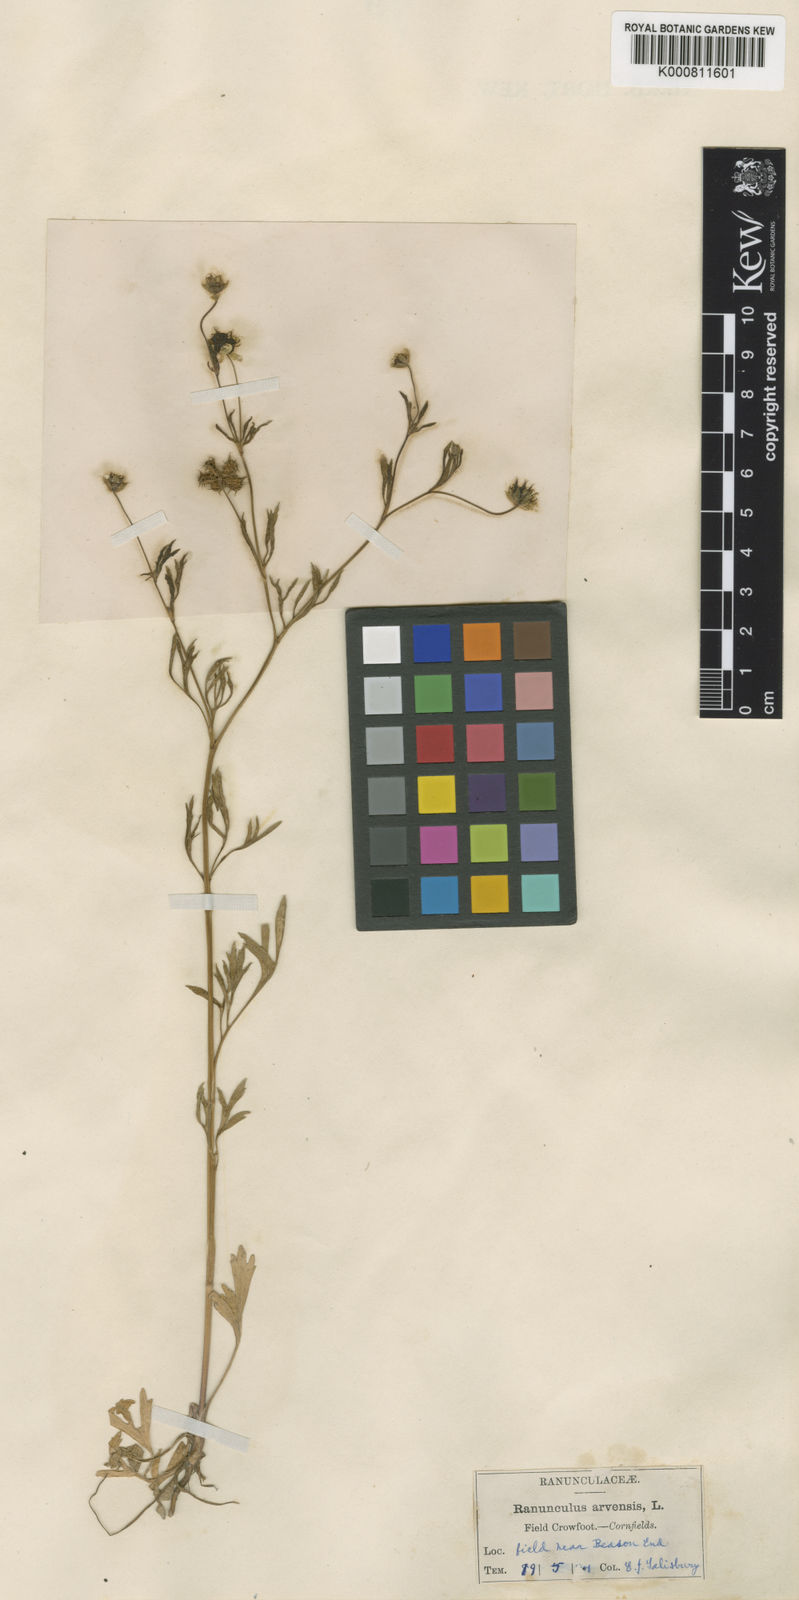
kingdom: Plantae
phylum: Tracheophyta
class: Magnoliopsida
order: Ranunculales
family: Ranunculaceae
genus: Ranunculus
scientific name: Ranunculus arvensis
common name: Corn buttercup
